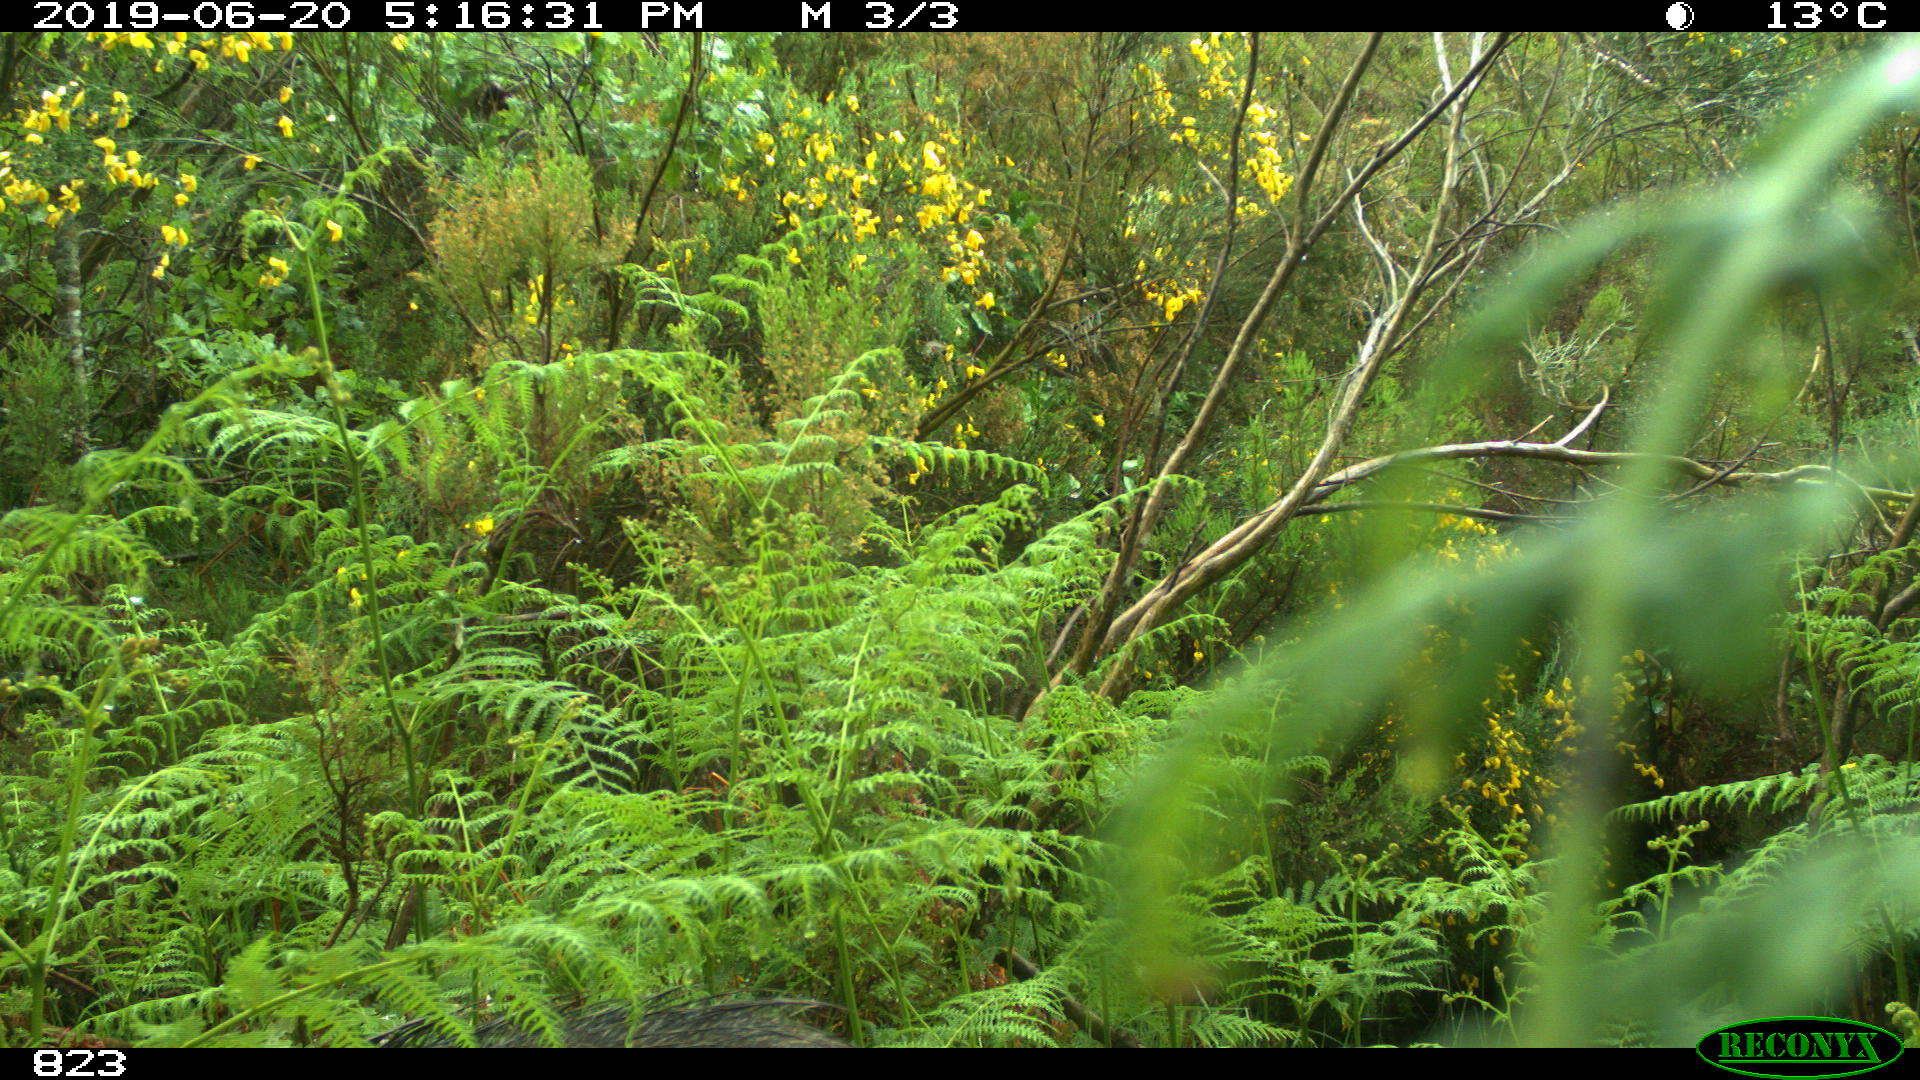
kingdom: Animalia
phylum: Chordata
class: Mammalia
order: Artiodactyla
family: Suidae
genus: Sus
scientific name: Sus scrofa
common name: Wild boar
